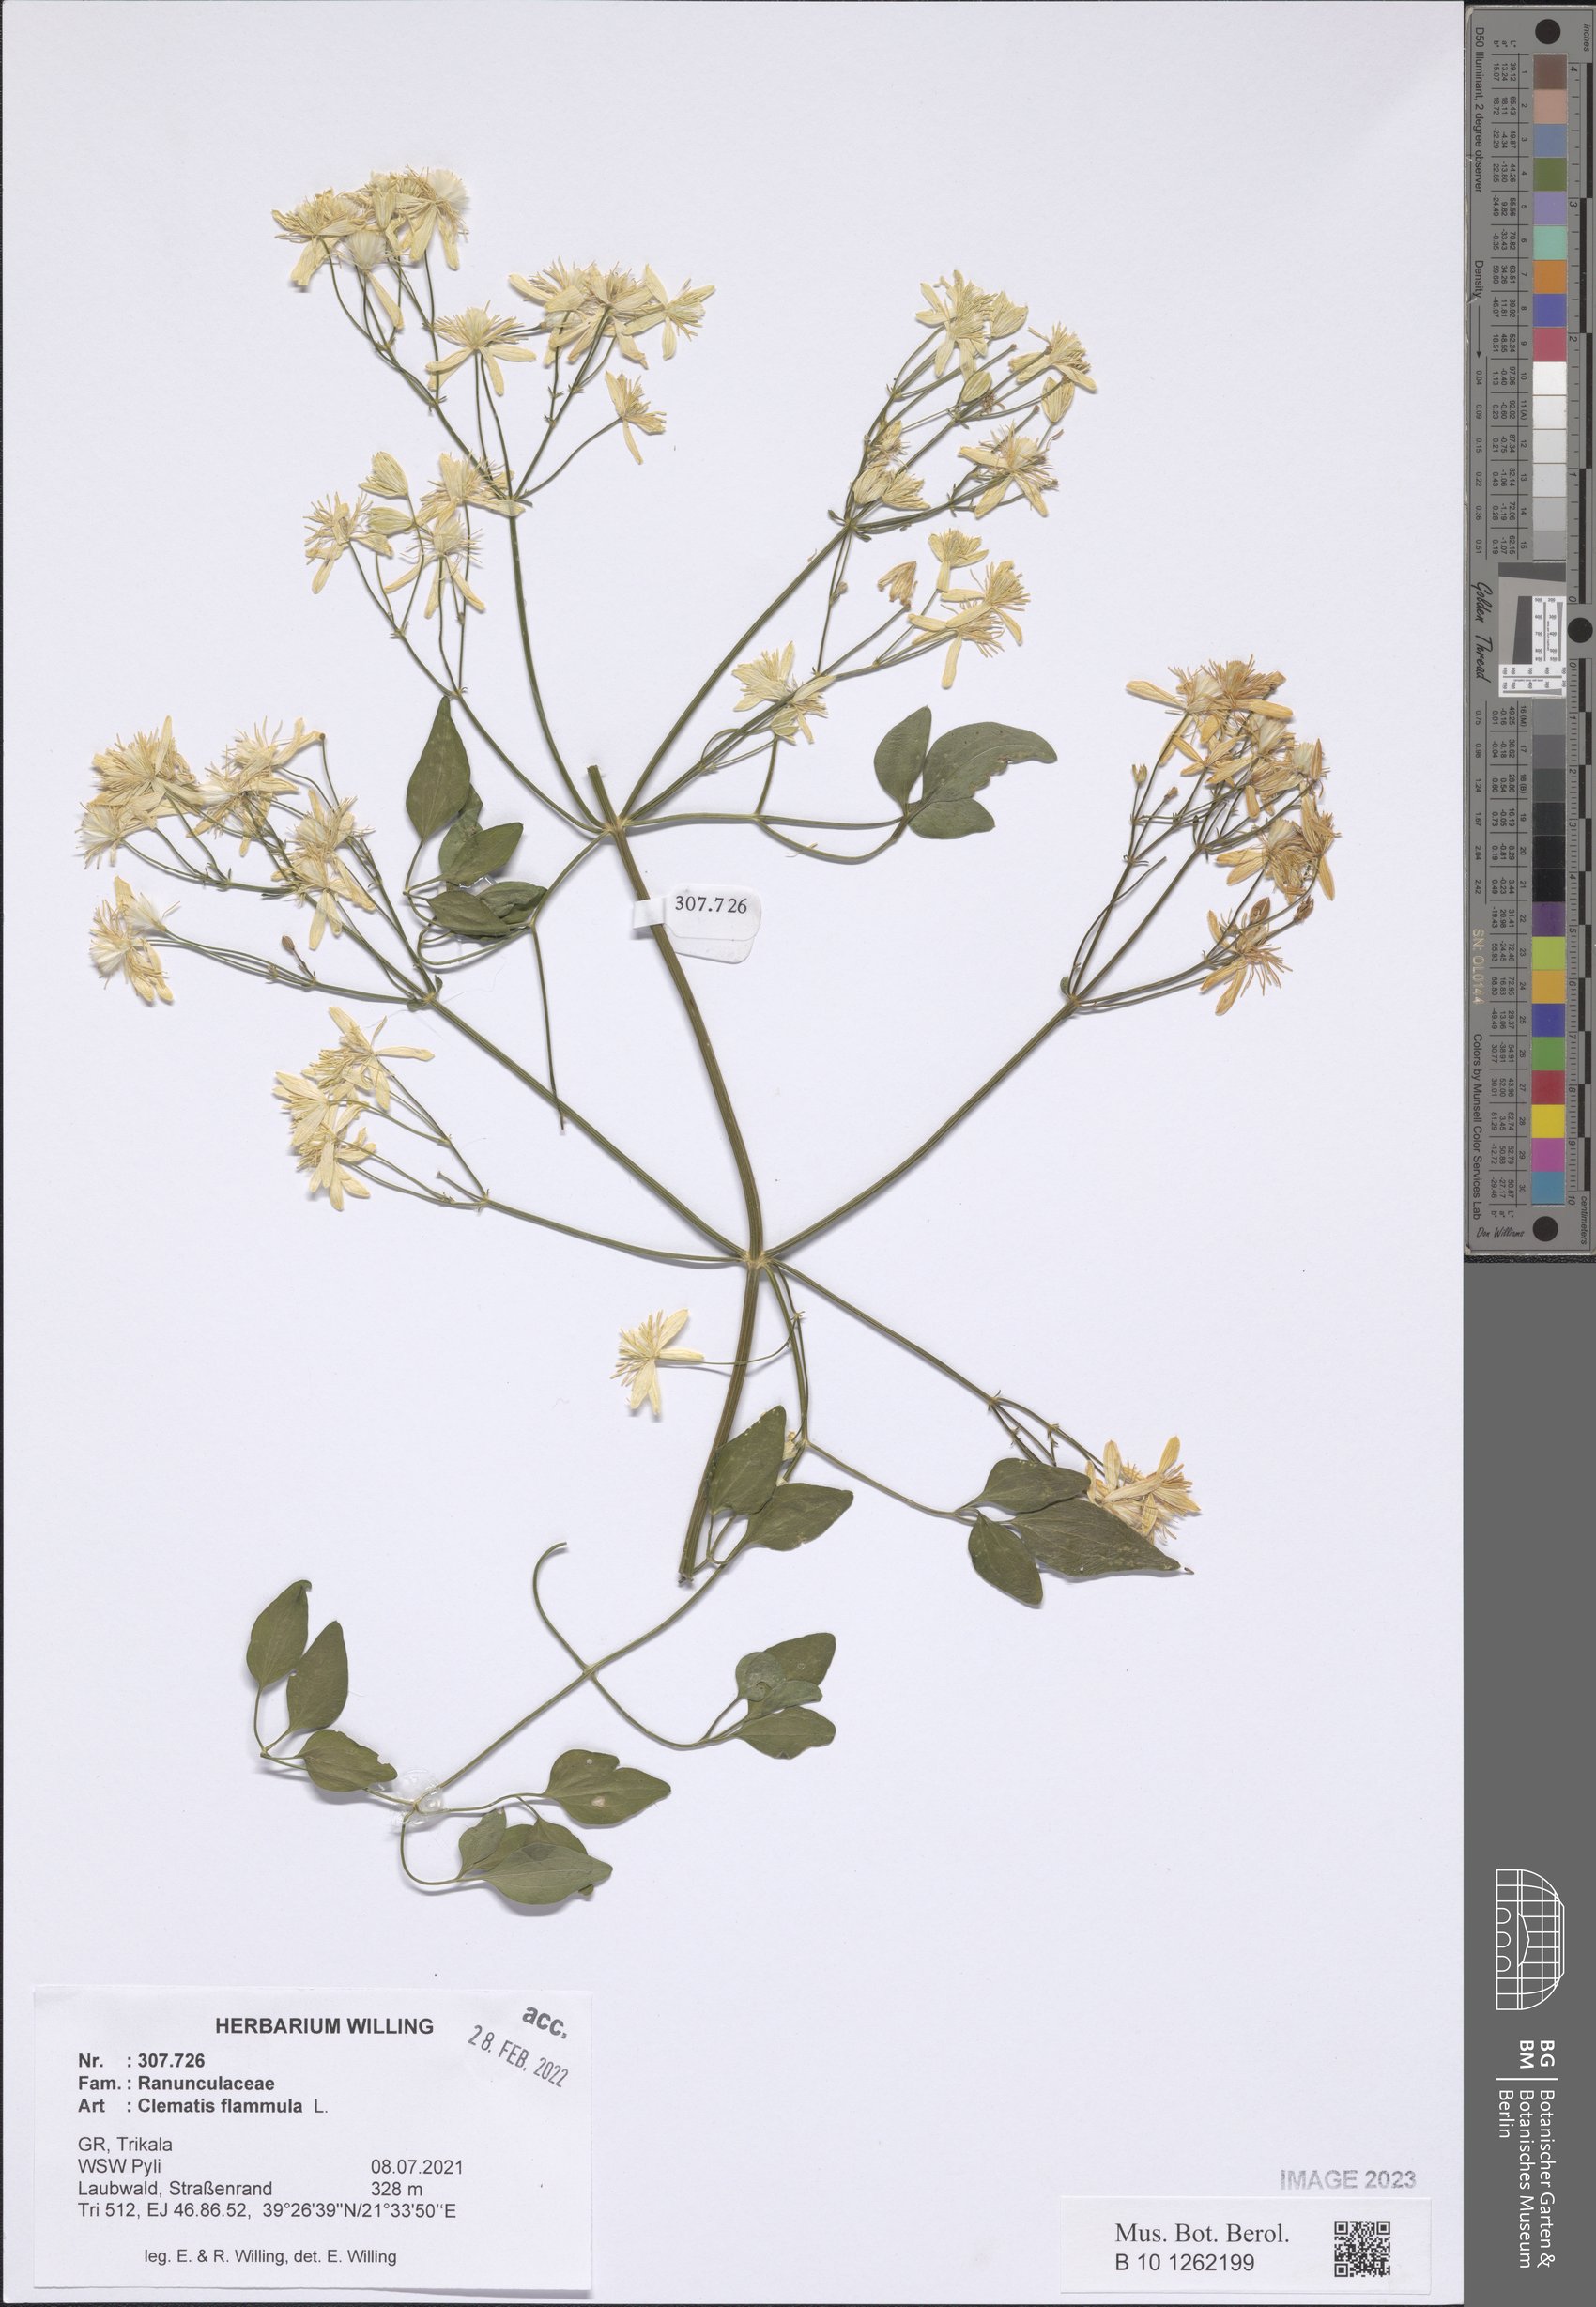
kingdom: Plantae
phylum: Tracheophyta
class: Magnoliopsida
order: Ranunculales
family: Ranunculaceae
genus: Clematis
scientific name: Clematis flammula
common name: Virgin's-bower
